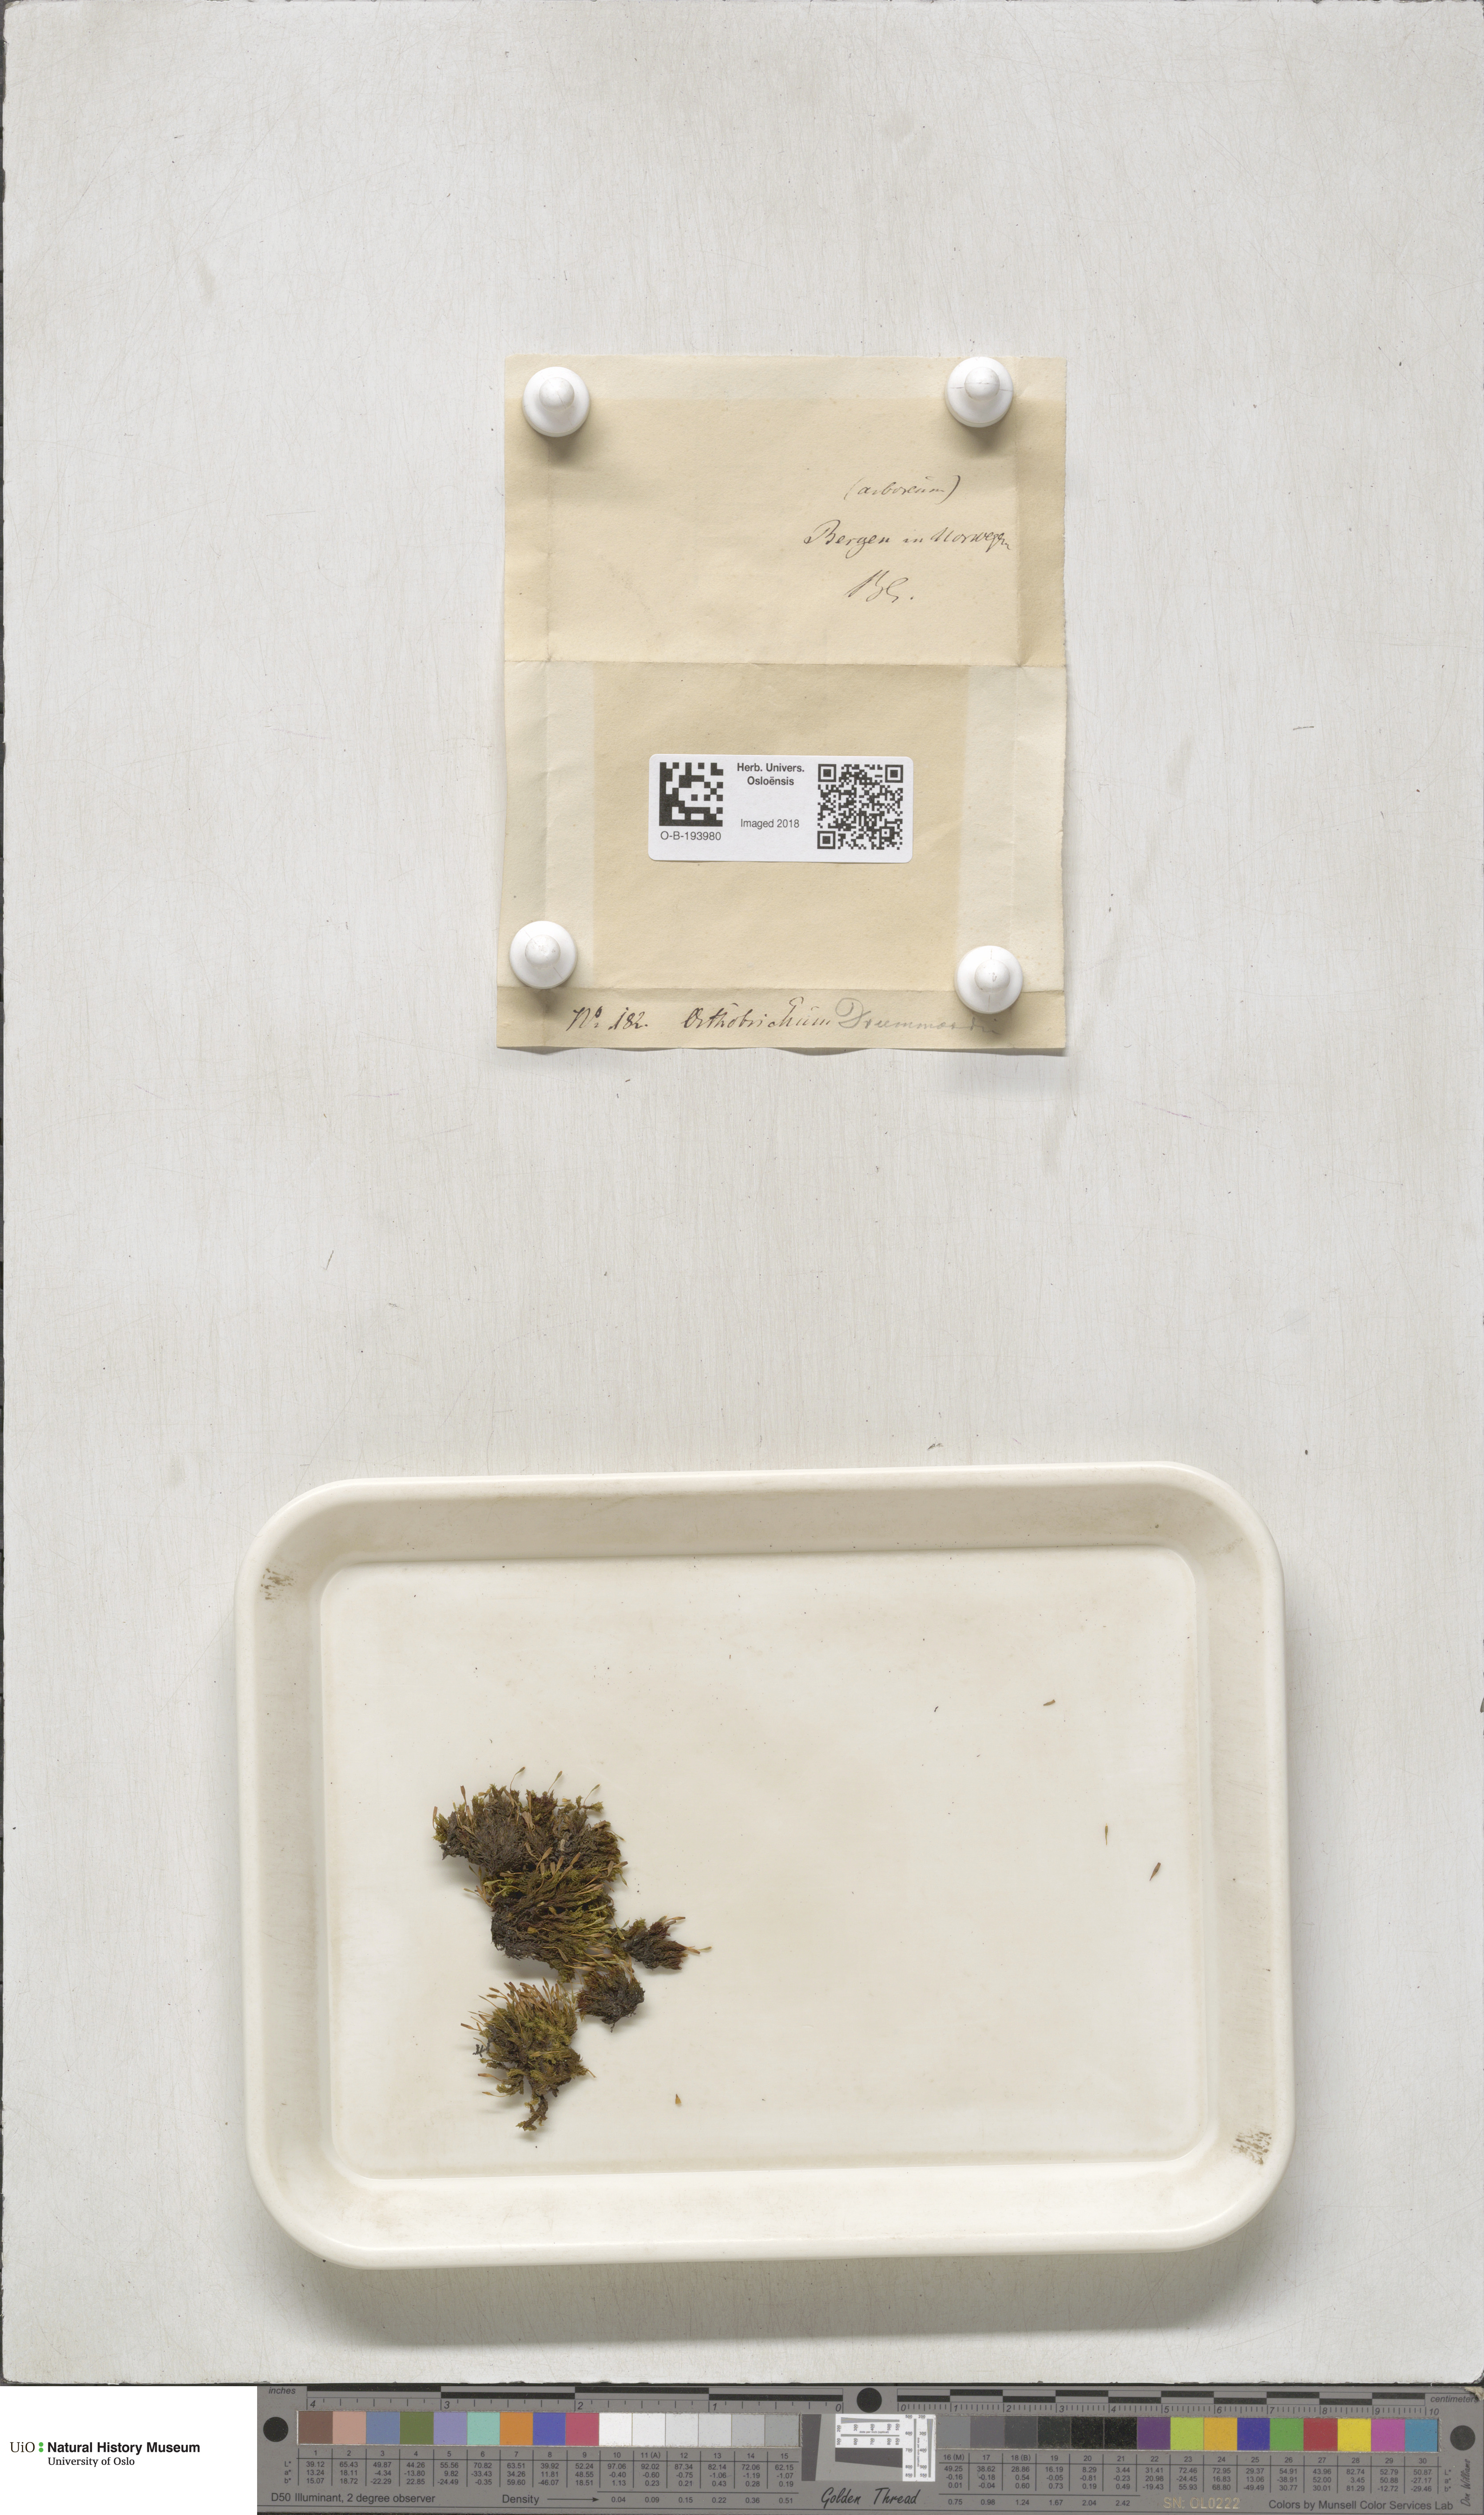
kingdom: Plantae
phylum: Bryophyta
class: Bryopsida
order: Orthotrichales
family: Orthotrichaceae
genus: Ulota
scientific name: Ulota drummondii
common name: Drummond's pincushion moss
